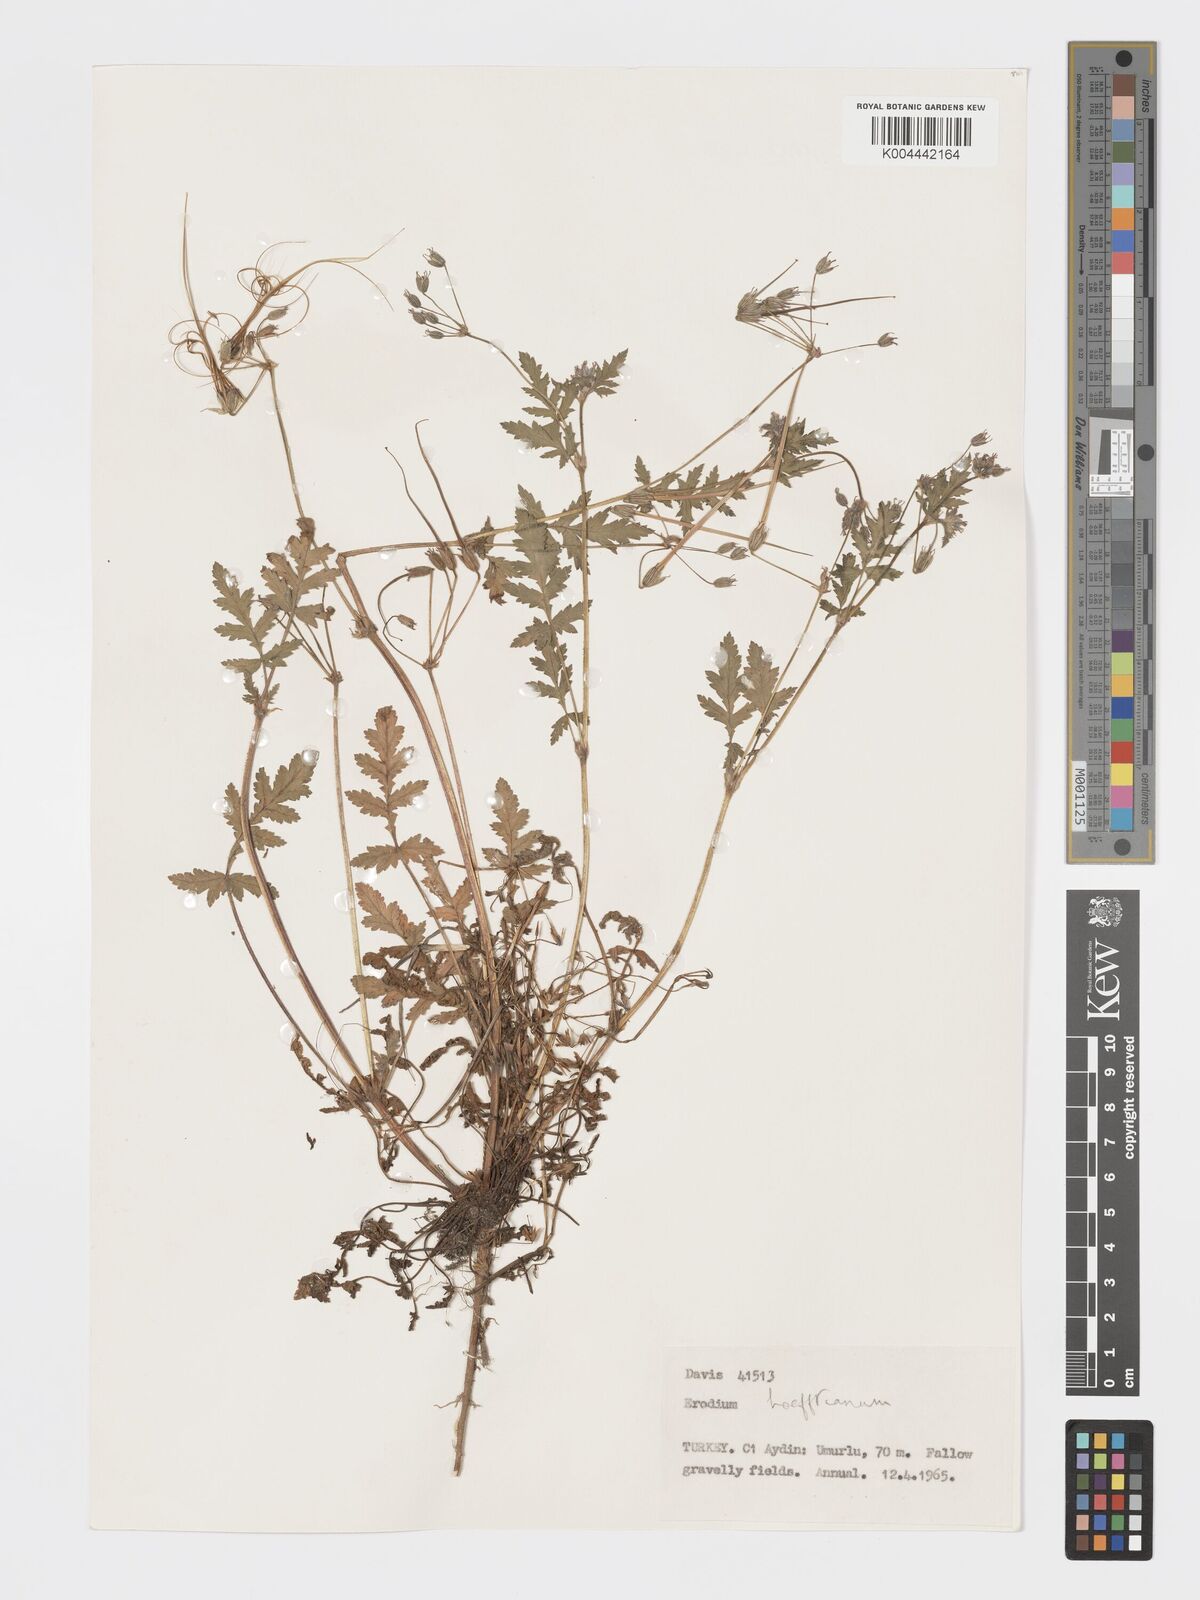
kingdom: Plantae
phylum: Tracheophyta
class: Magnoliopsida
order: Geraniales
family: Geraniaceae
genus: Erodium
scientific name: Erodium hoefftianum
